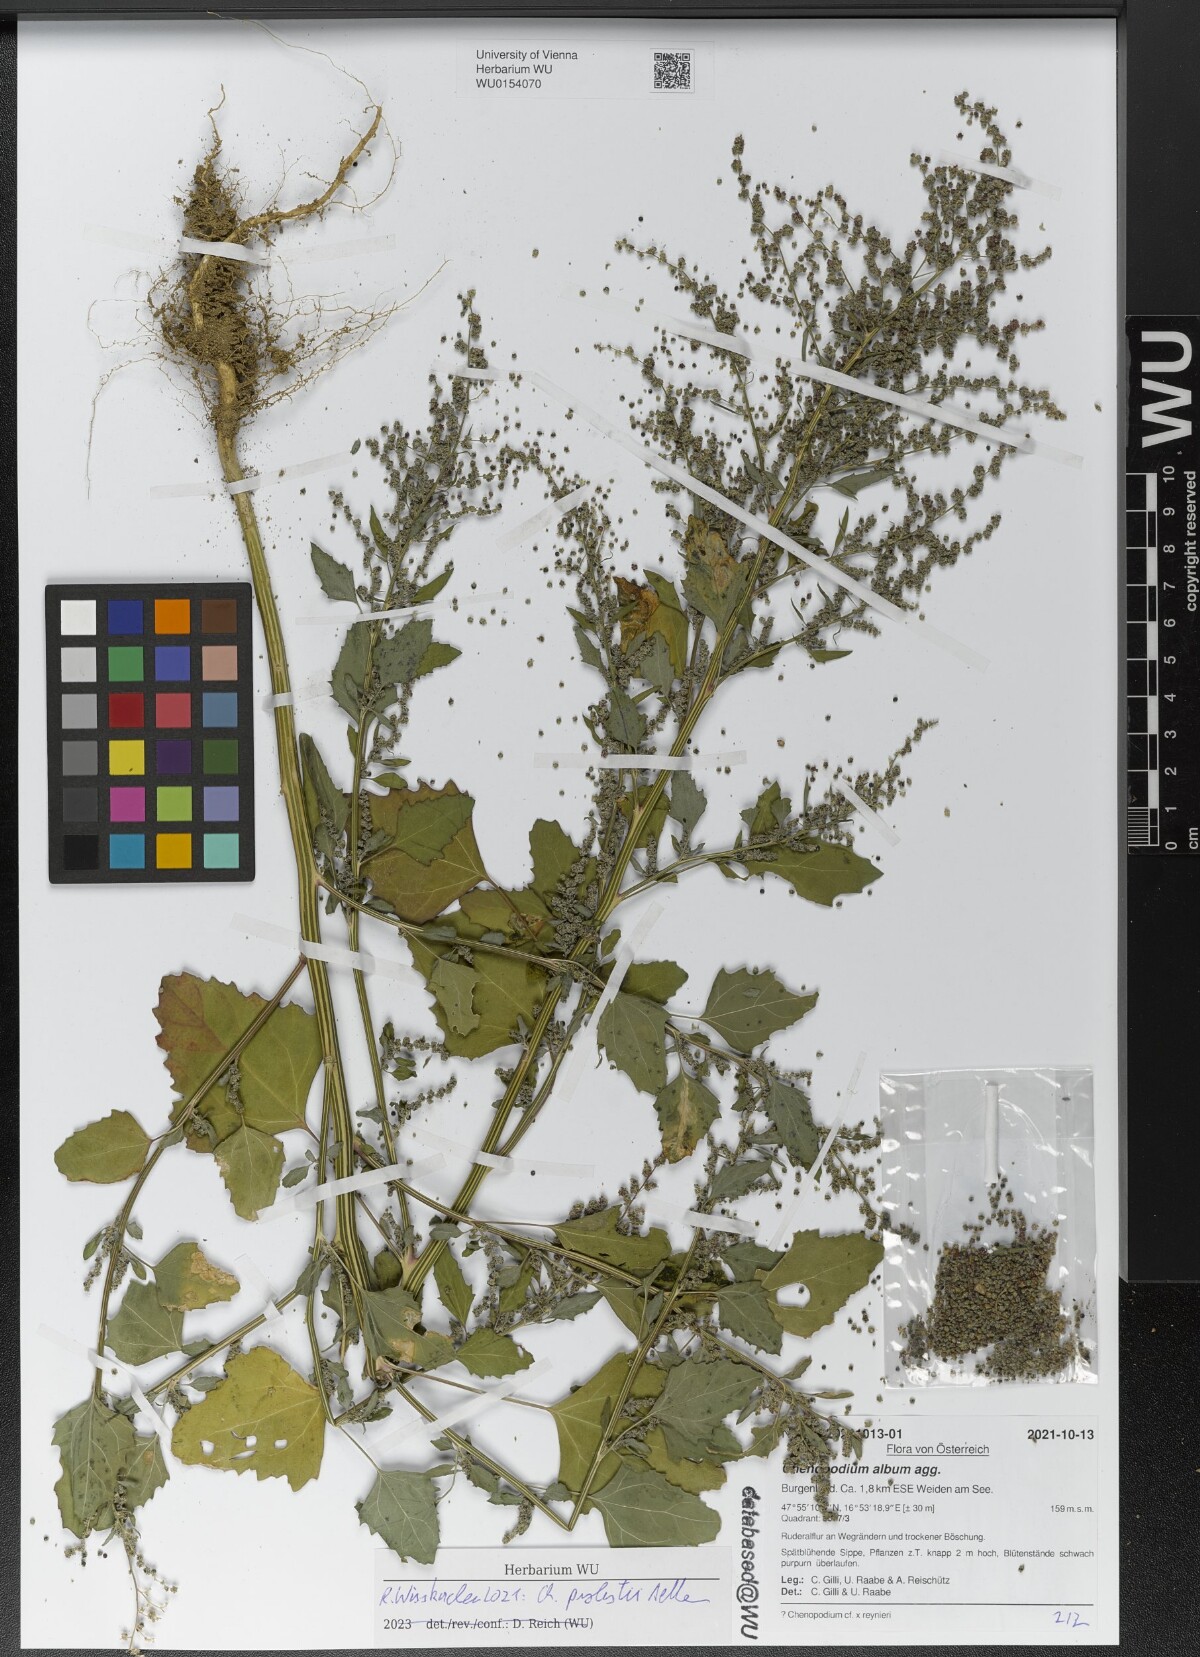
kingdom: Plantae
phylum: Tracheophyta
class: Magnoliopsida
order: Caryophyllales
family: Amaranthaceae
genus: Chenopodium
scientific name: Chenopodium probstii
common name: Probst's goosefoot
